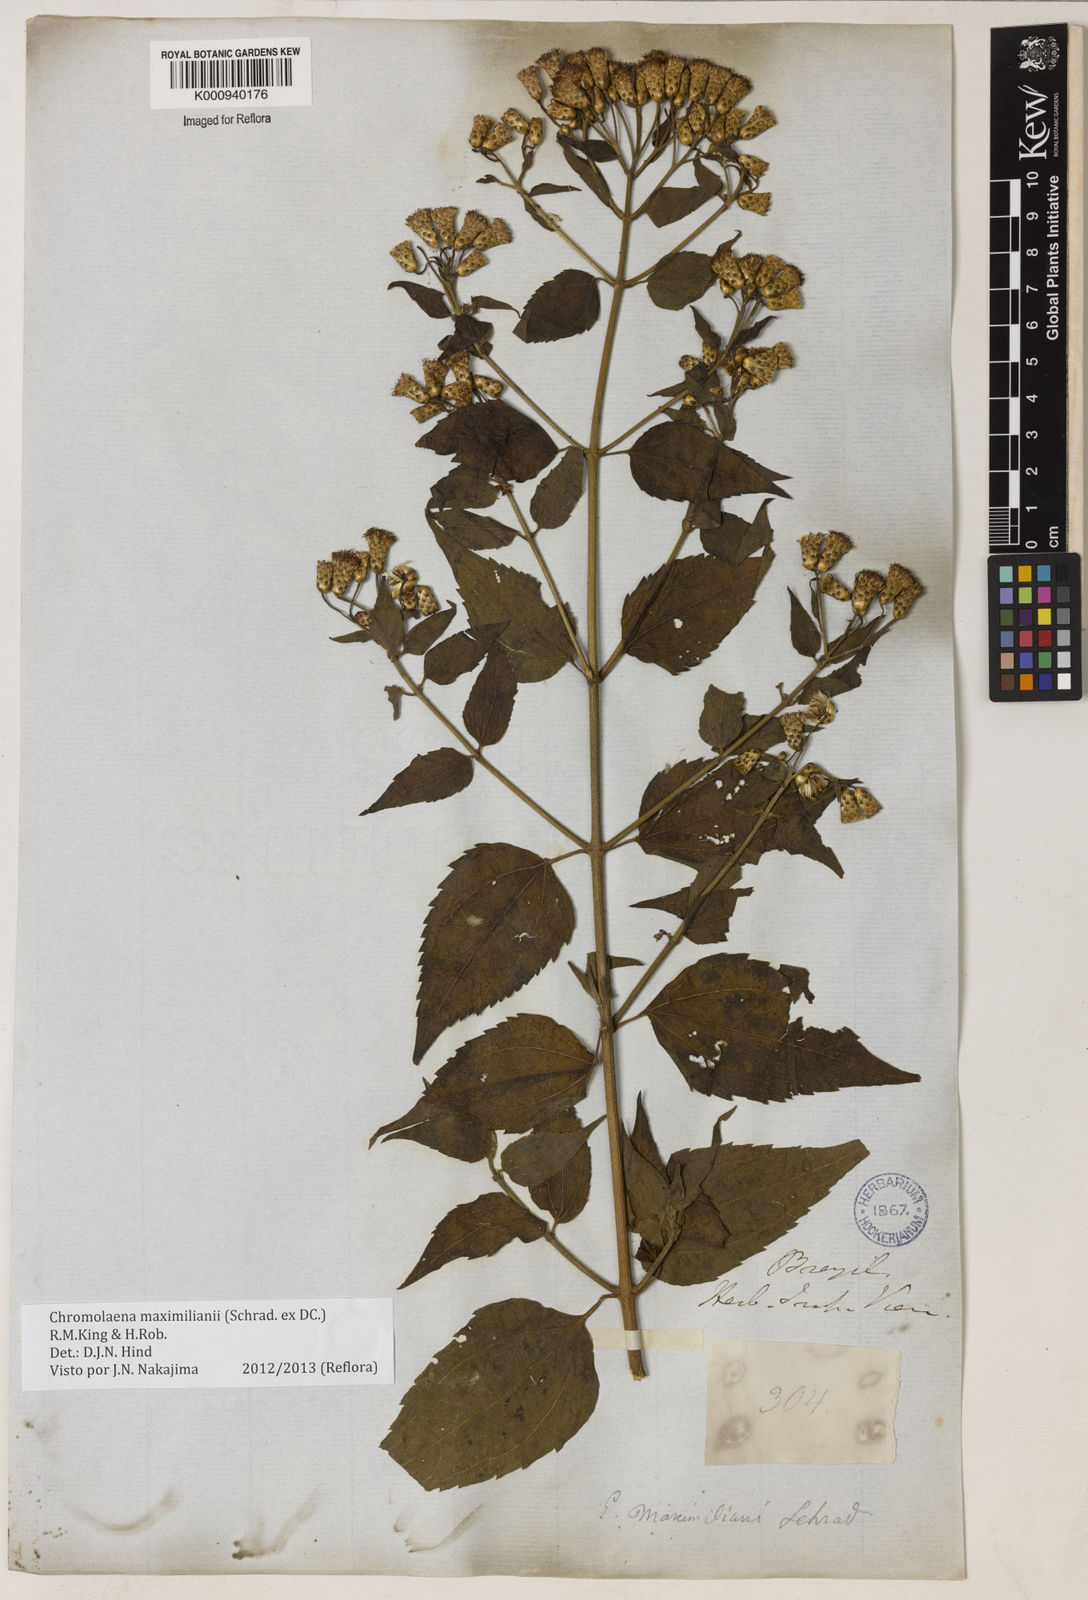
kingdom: Plantae
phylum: Tracheophyta
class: Magnoliopsida
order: Asterales
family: Asteraceae
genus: Chromolaena
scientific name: Chromolaena maximiliani
